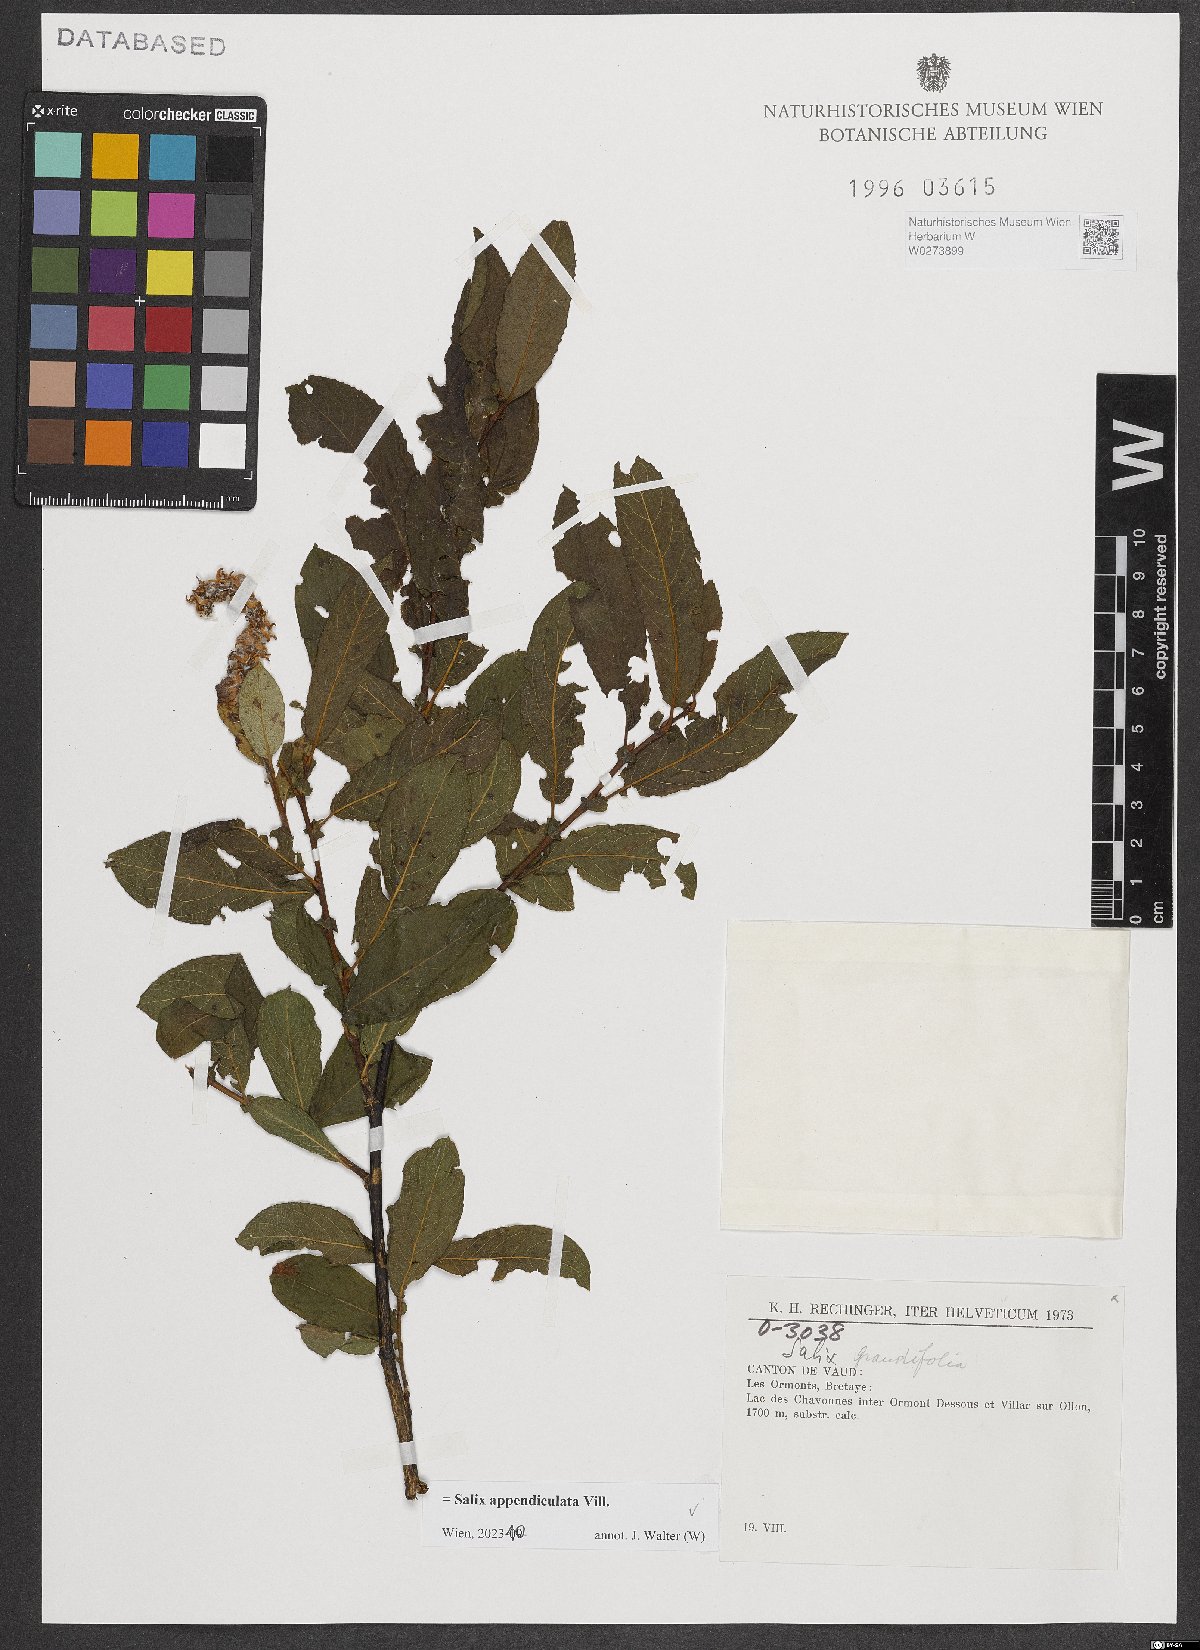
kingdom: Plantae
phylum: Tracheophyta
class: Magnoliopsida
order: Malpighiales
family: Salicaceae
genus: Salix
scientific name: Salix appendiculata
